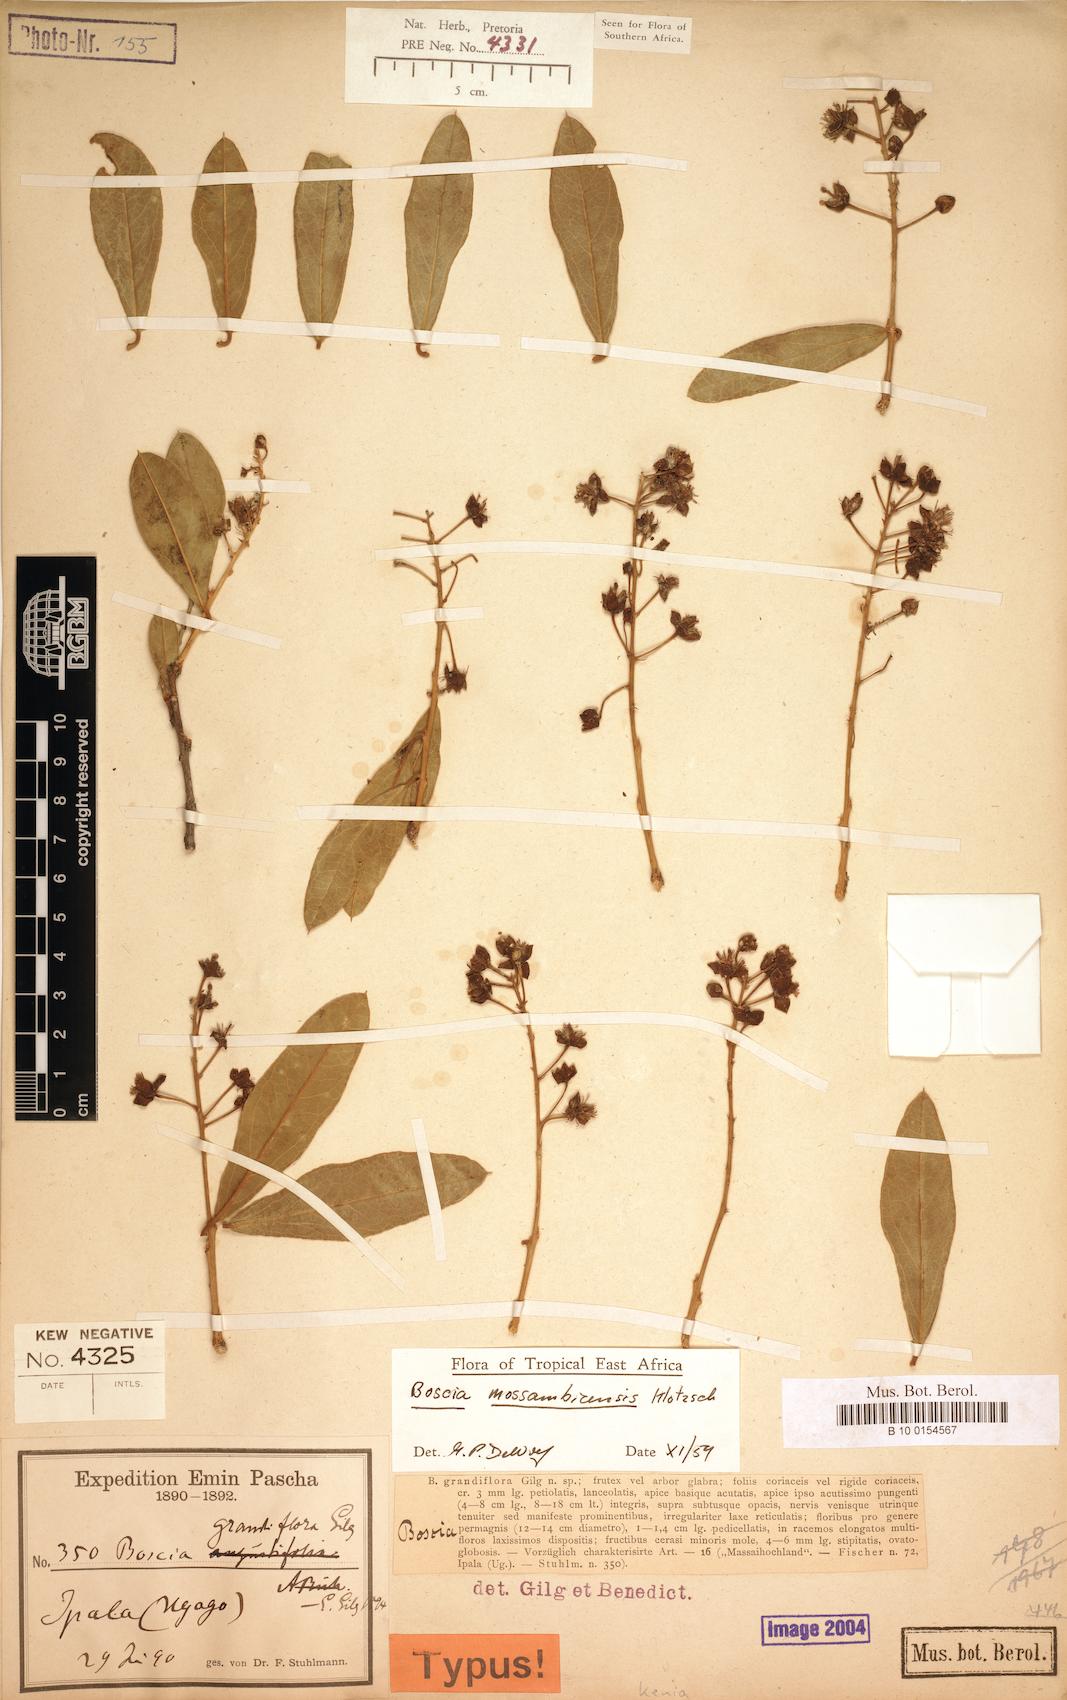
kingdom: Plantae
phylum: Tracheophyta
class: Magnoliopsida
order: Brassicales
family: Capparaceae
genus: Boscia
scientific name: Boscia mossambicensis
